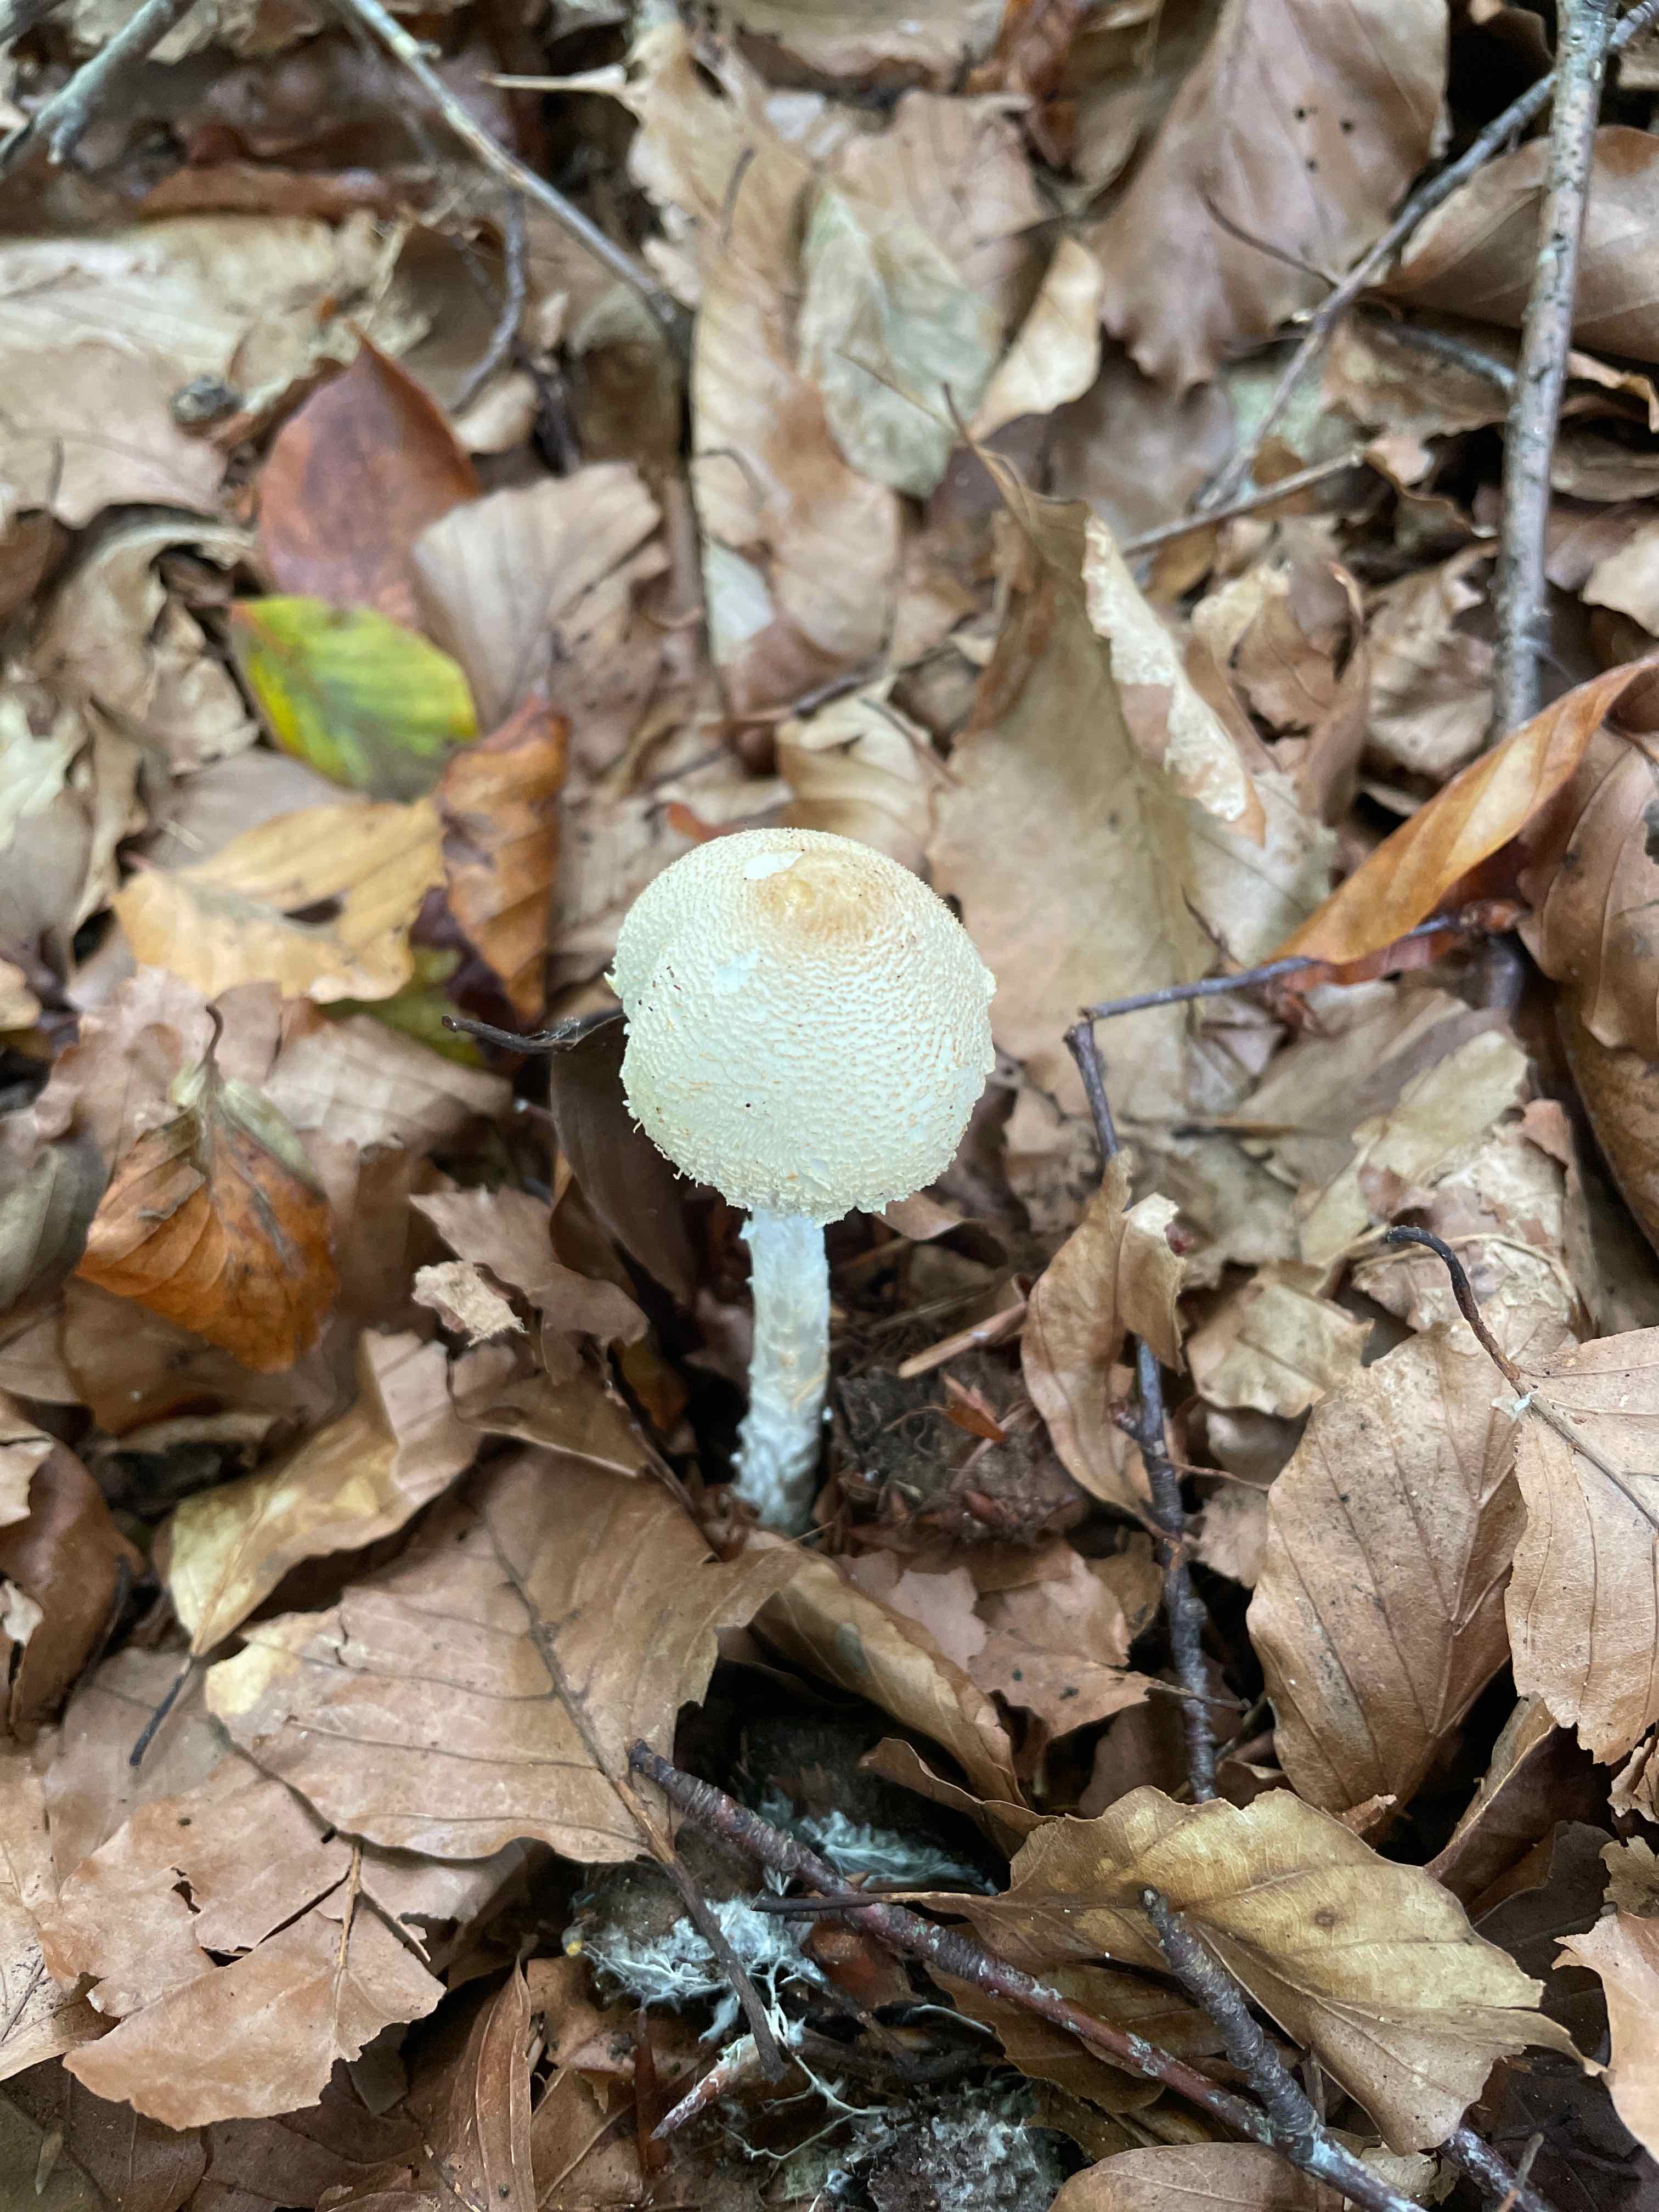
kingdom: Fungi
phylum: Basidiomycota
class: Agaricomycetes
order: Agaricales
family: Agaricaceae
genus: Lepiota
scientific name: Lepiota clypeolaria
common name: flosset parasolhat
